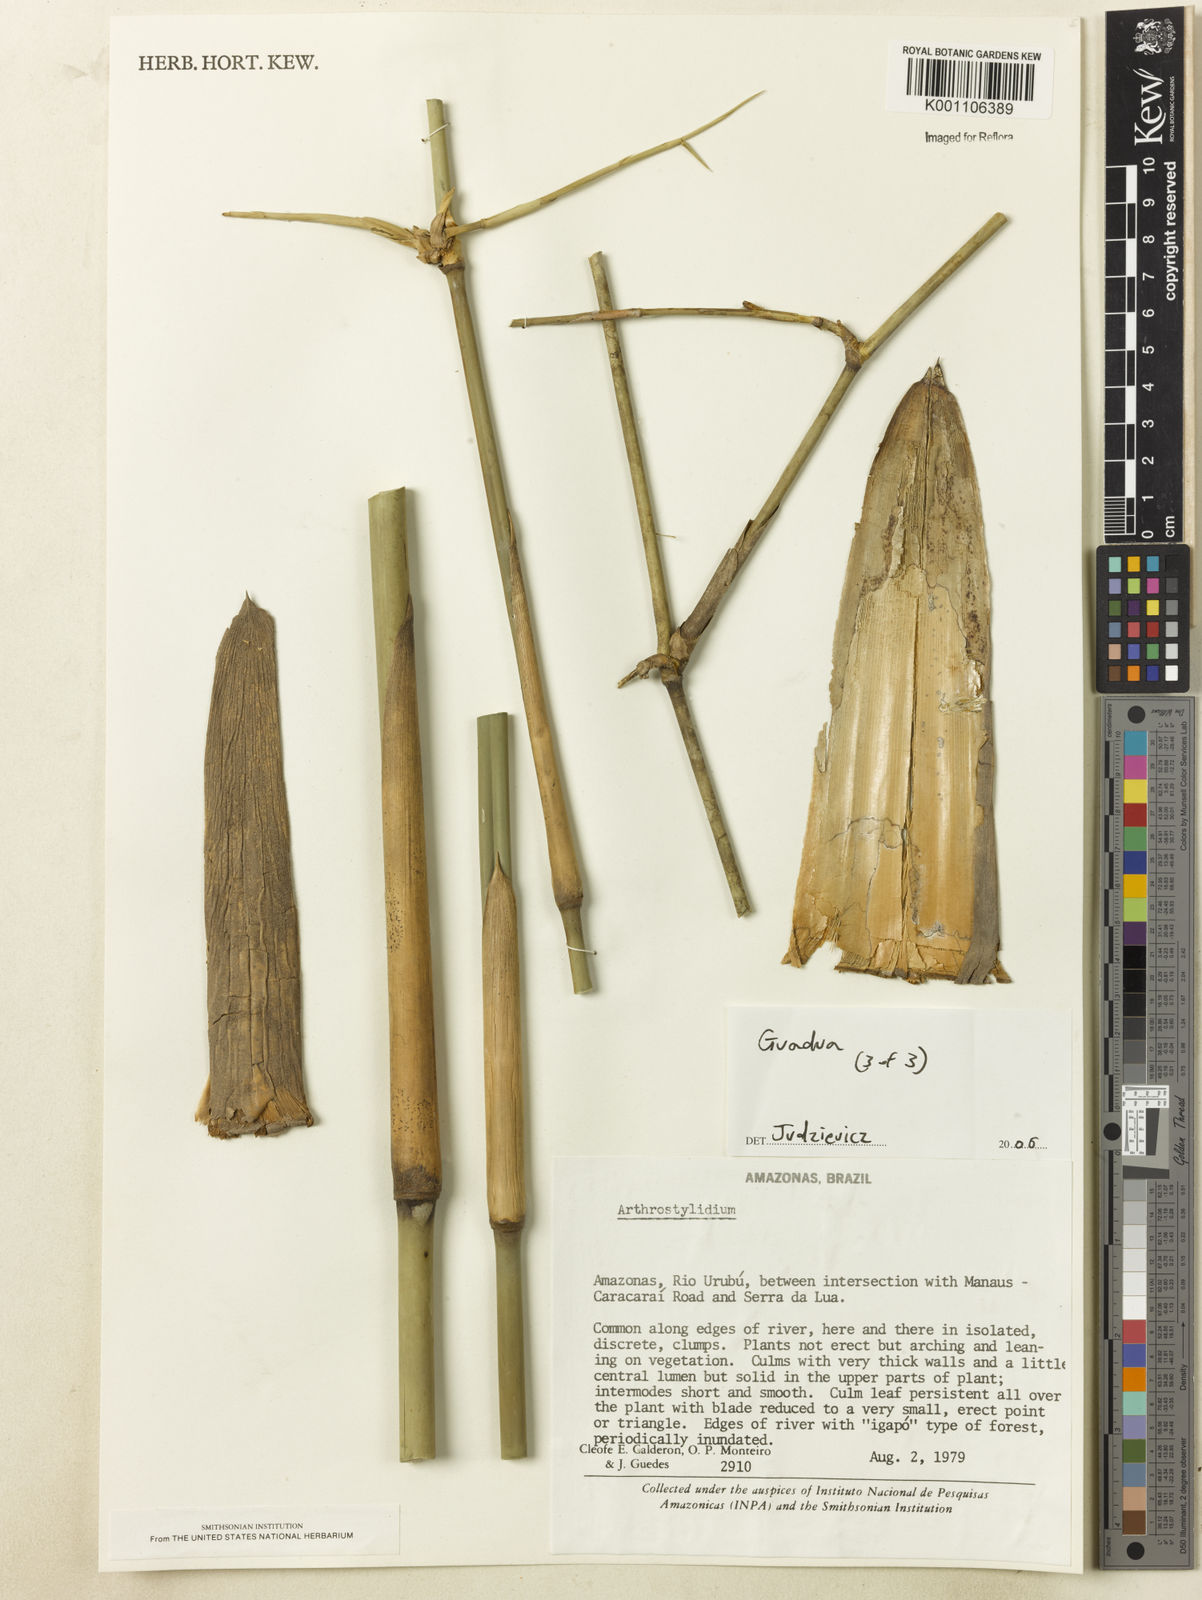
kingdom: Plantae
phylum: Tracheophyta
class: Liliopsida
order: Poales
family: Poaceae
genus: Guadua
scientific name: Guadua
